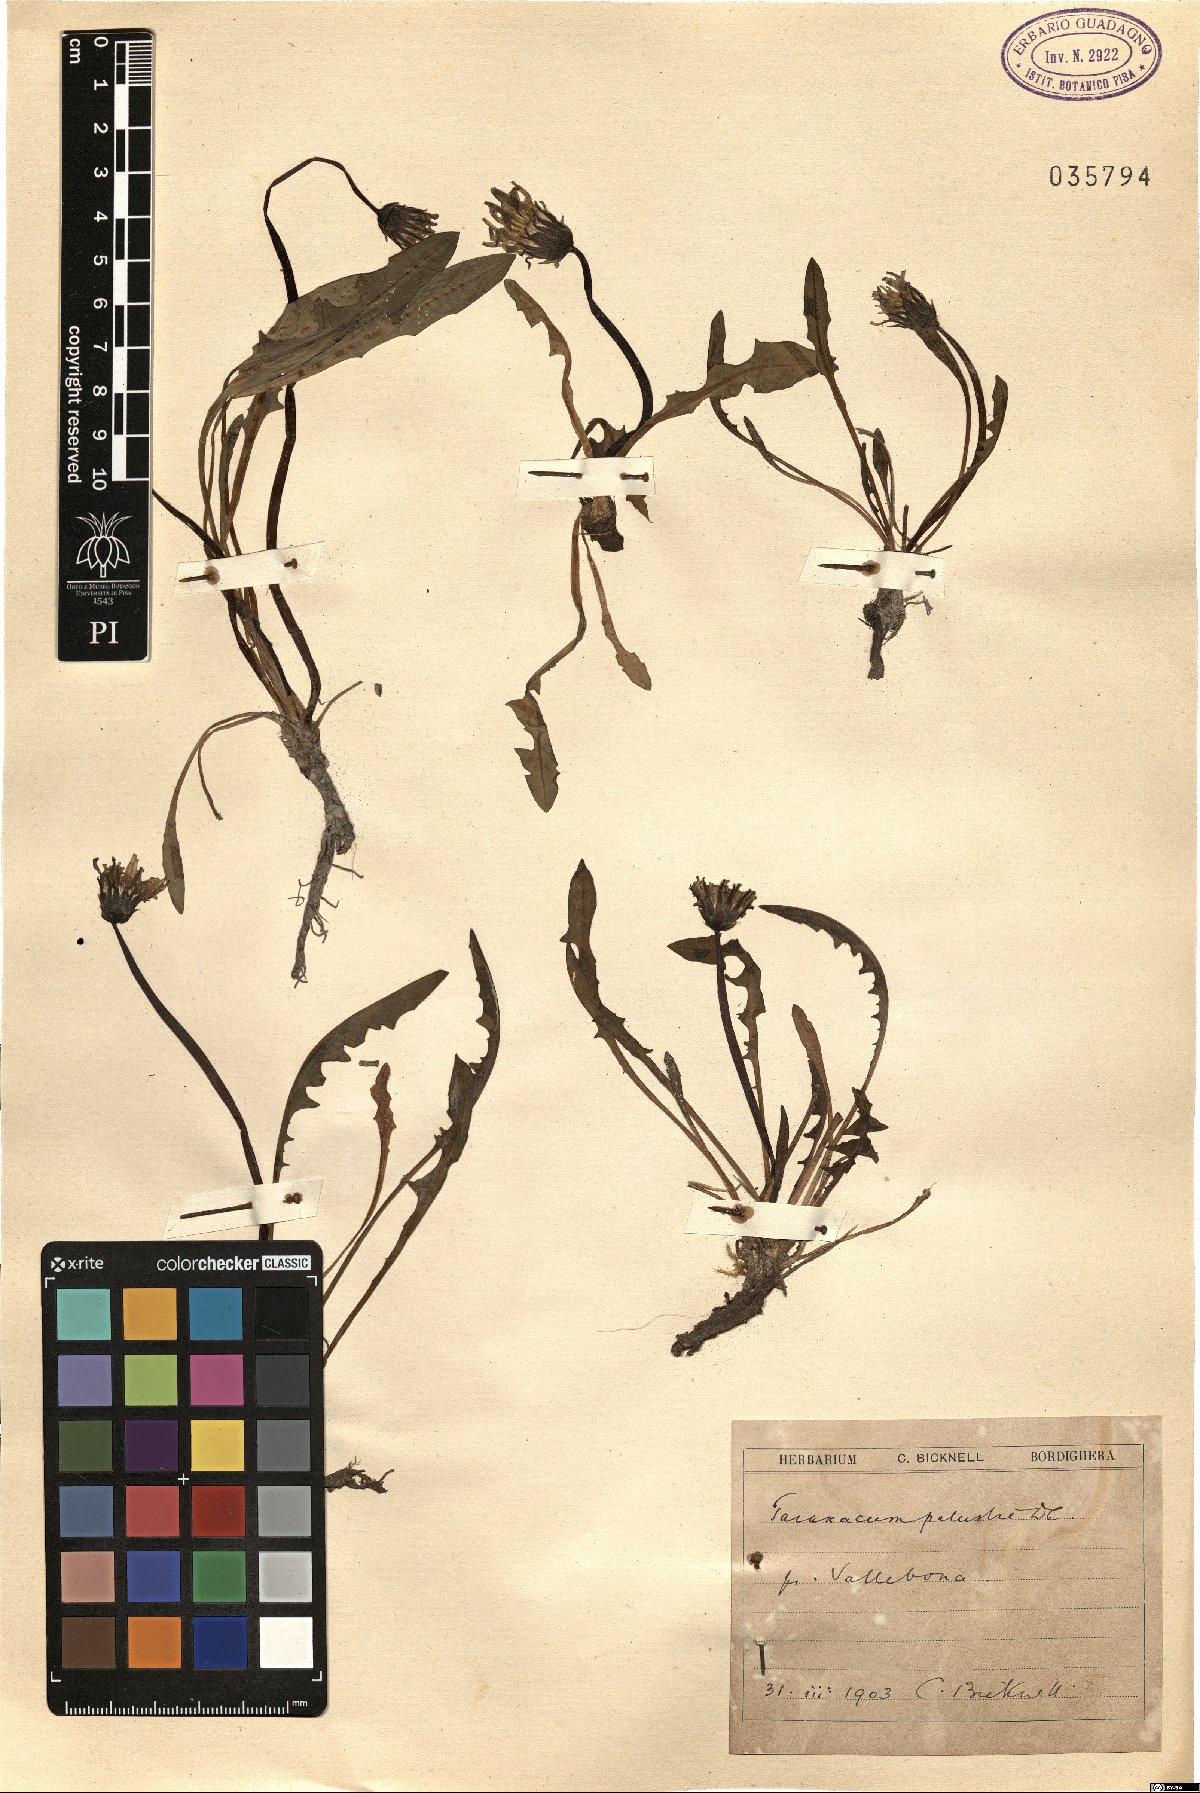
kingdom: Plantae
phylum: Tracheophyta
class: Magnoliopsida
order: Asterales
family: Asteraceae
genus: Taraxacum
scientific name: Taraxacum palustre
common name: Marsh dandelion
